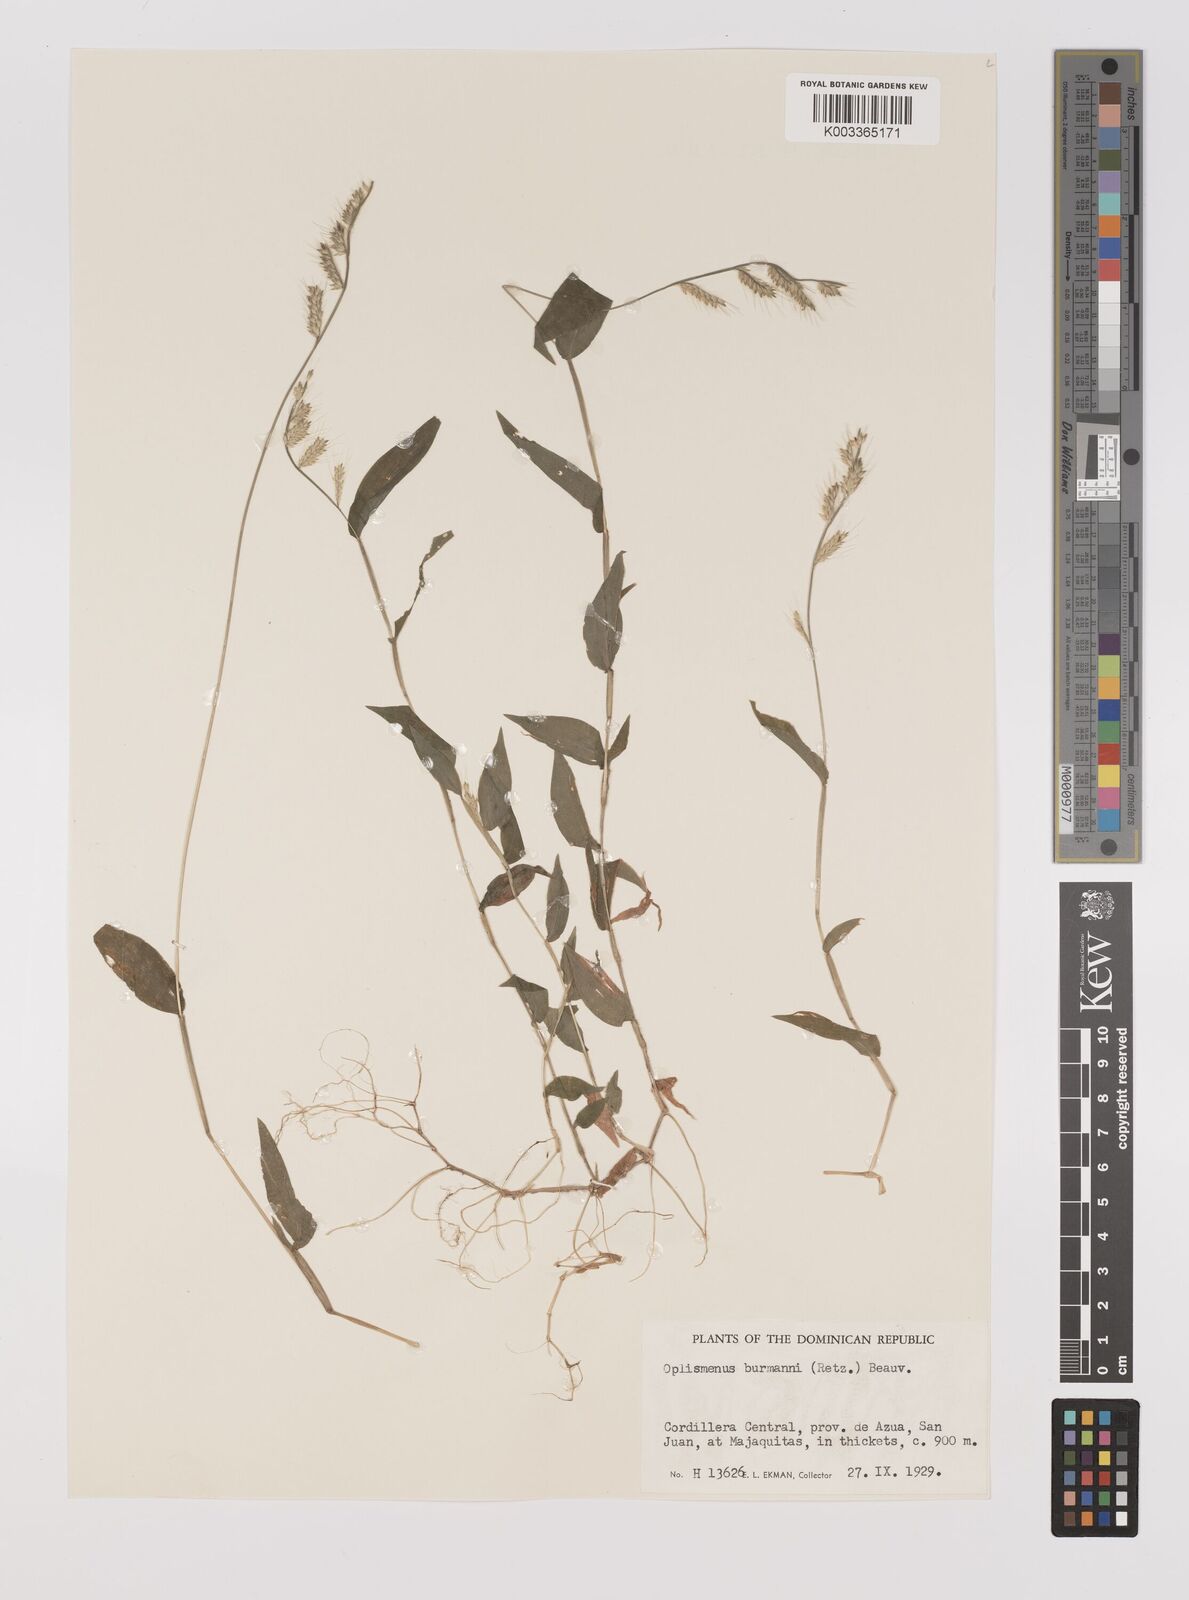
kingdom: Plantae
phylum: Tracheophyta
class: Liliopsida
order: Poales
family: Poaceae
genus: Oplismenus
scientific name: Oplismenus burmanni
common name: Burmann's basketgrass
